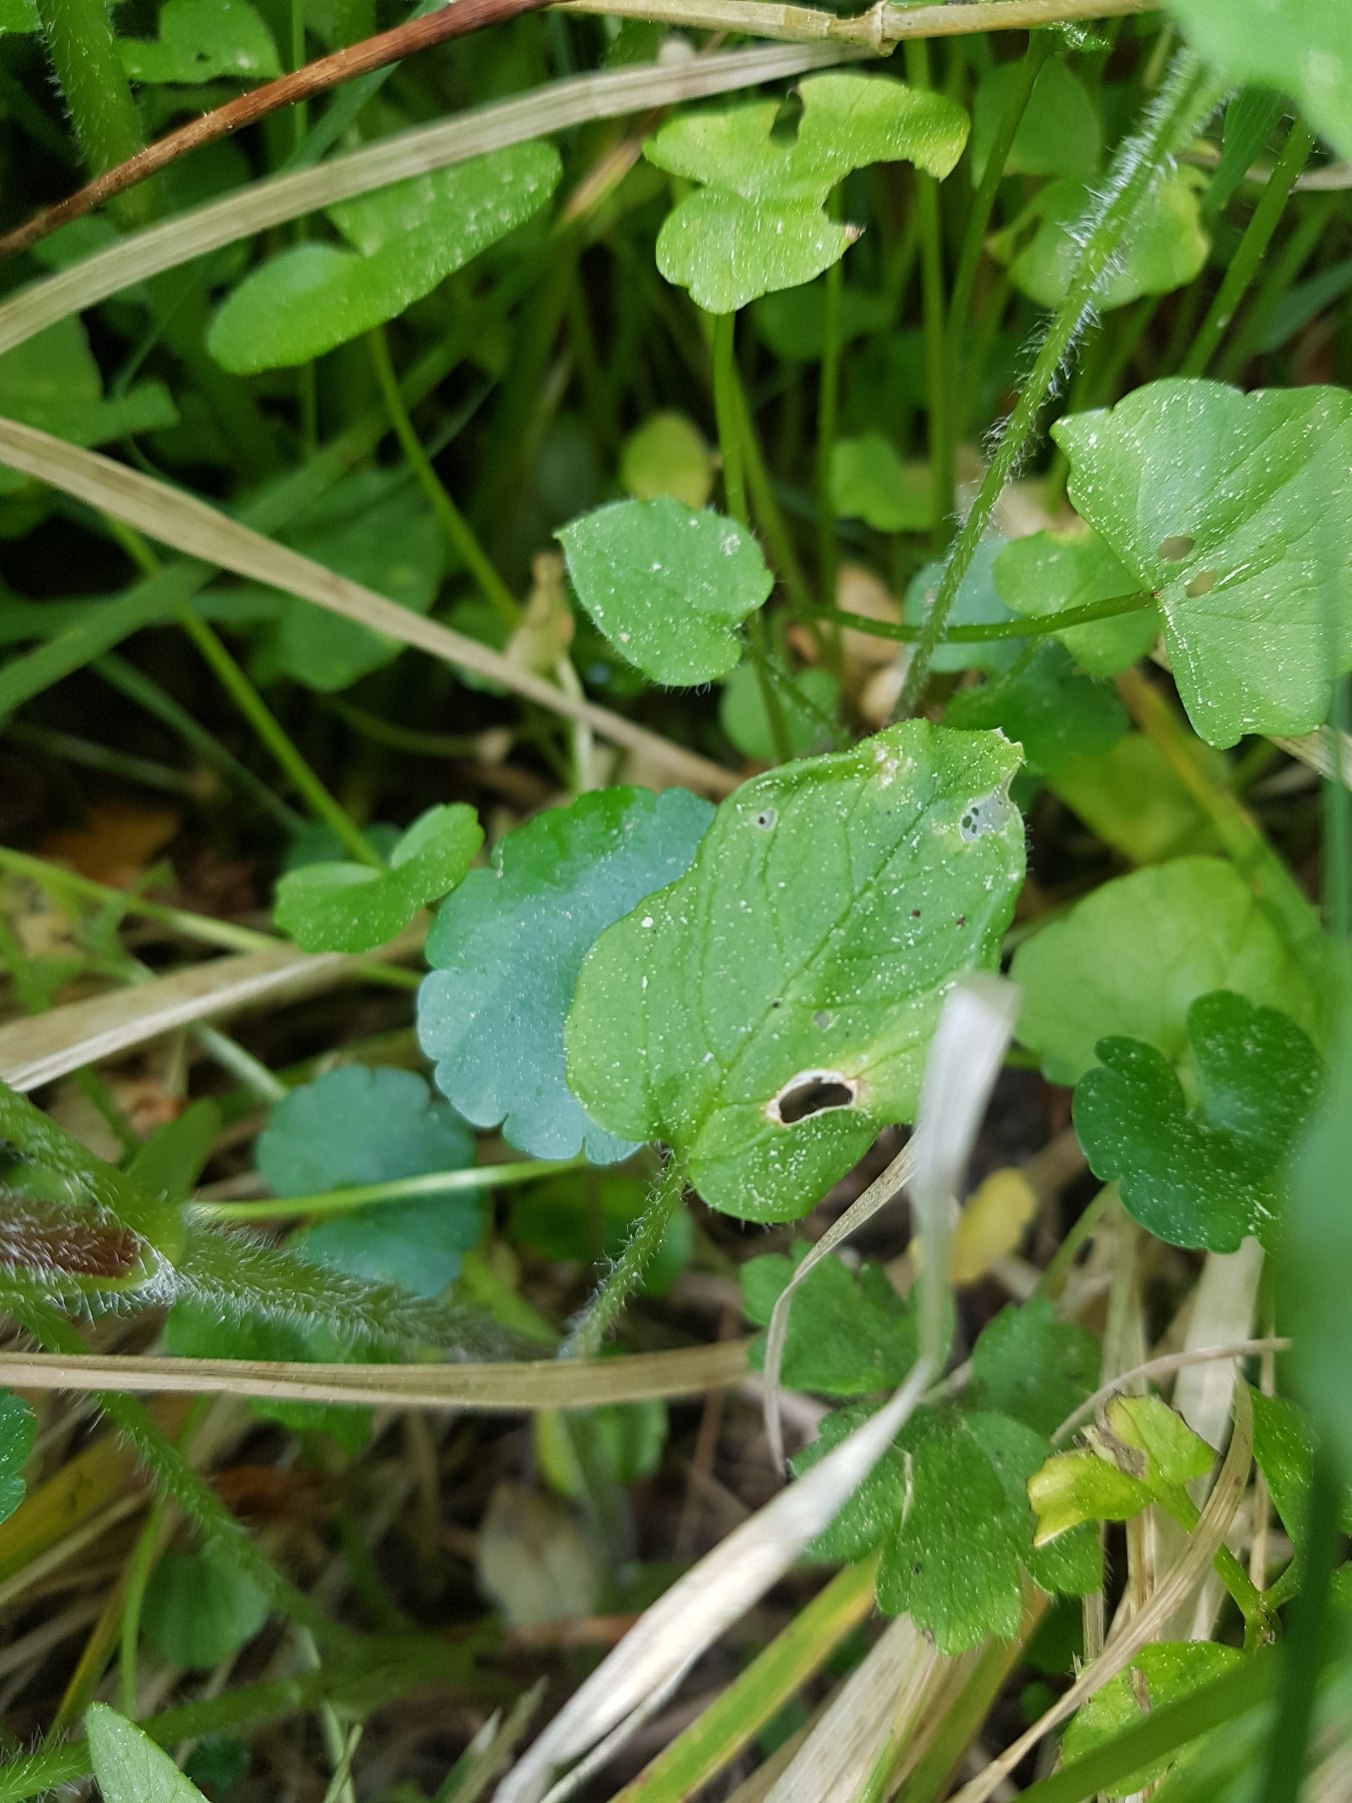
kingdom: Plantae
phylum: Tracheophyta
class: Magnoliopsida
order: Caryophyllales
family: Caryophyllaceae
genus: Stellaria
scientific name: Stellaria nemorum
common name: Nordlig lund-fladstjerne
